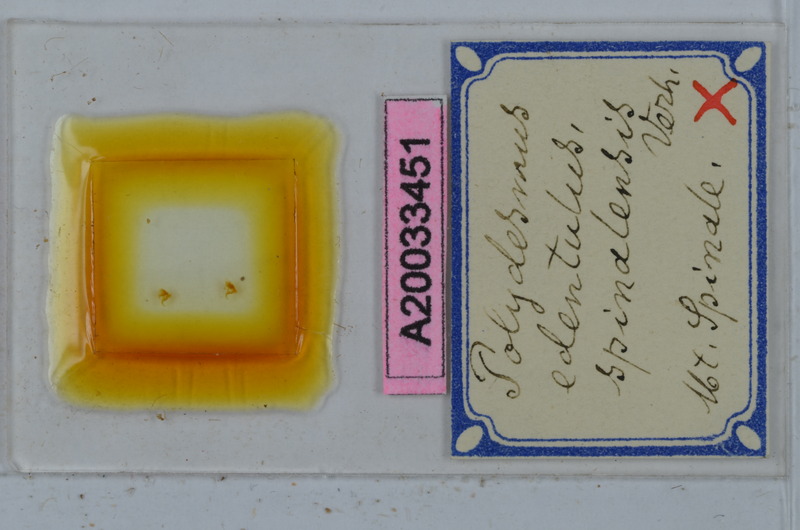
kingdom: Animalia
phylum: Arthropoda
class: Diplopoda
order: Polydesmida
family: Polydesmidae
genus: Polydesmus
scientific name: Polydesmus edentulus
